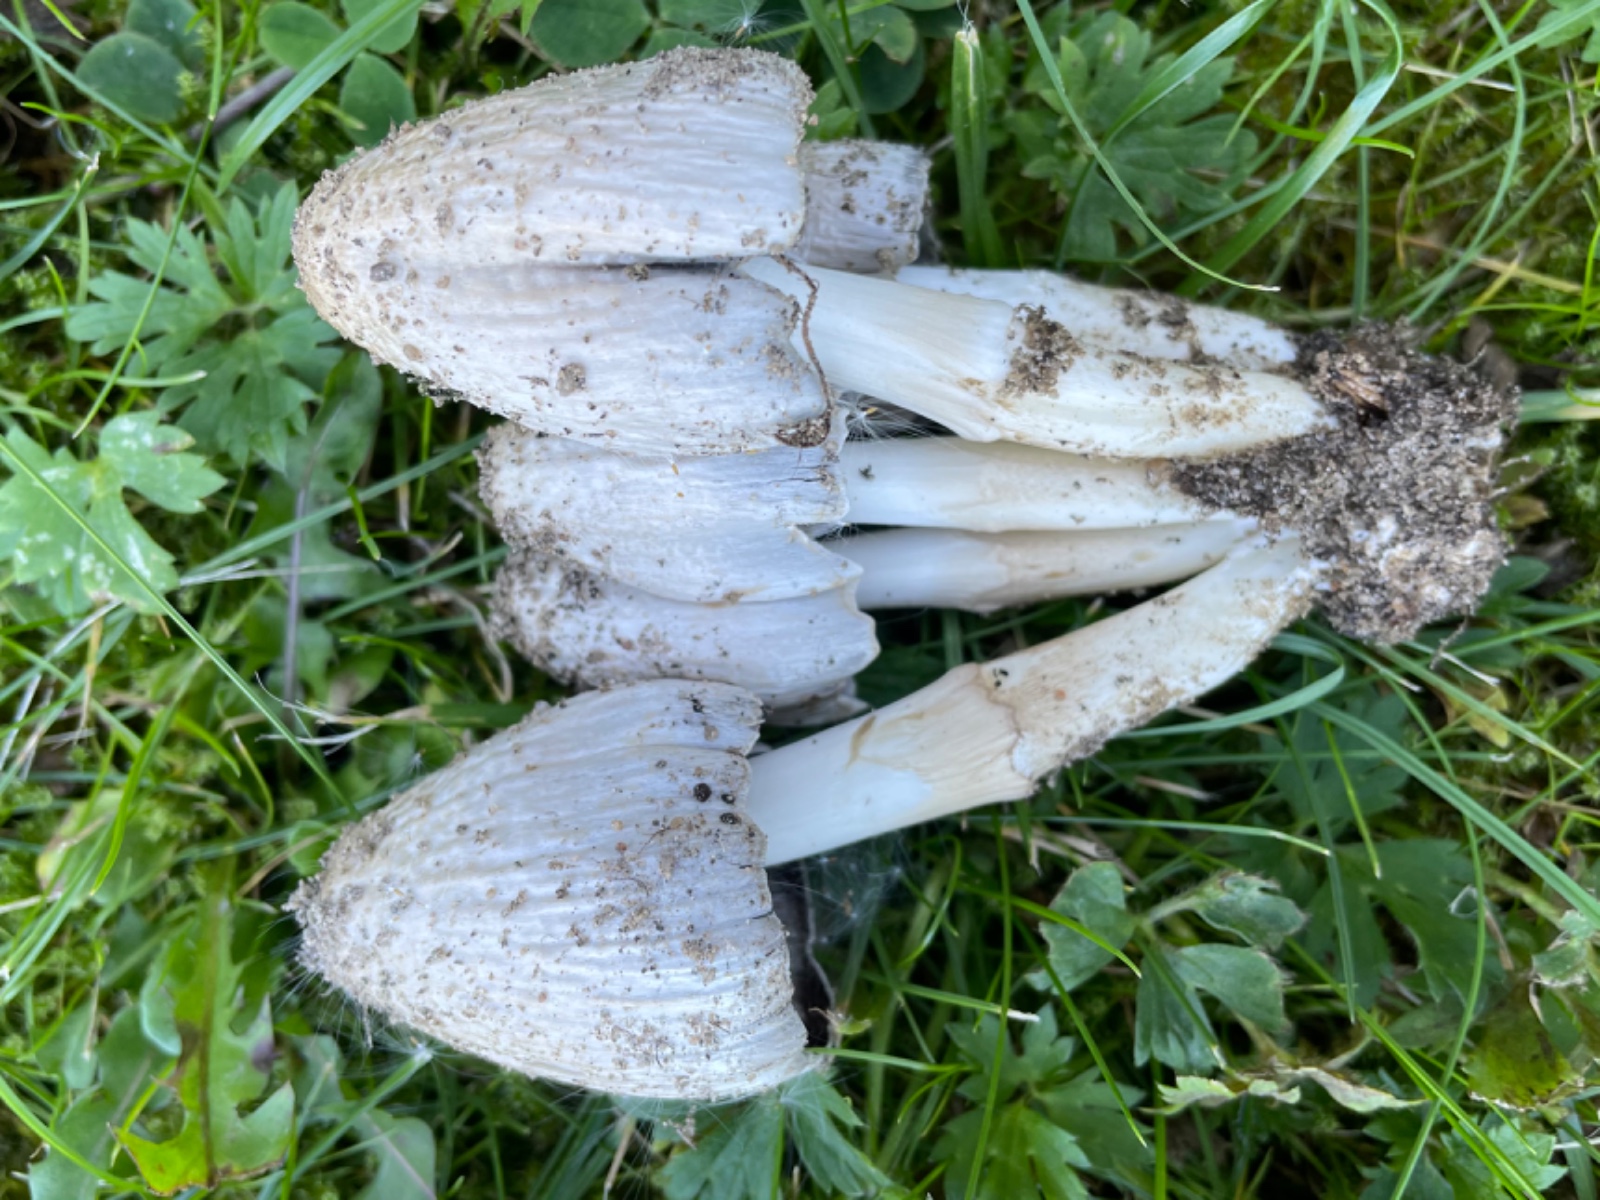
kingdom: Fungi
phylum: Basidiomycota
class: Agaricomycetes
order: Agaricales
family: Psathyrellaceae
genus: Coprinopsis
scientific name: Coprinopsis
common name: blækhat
